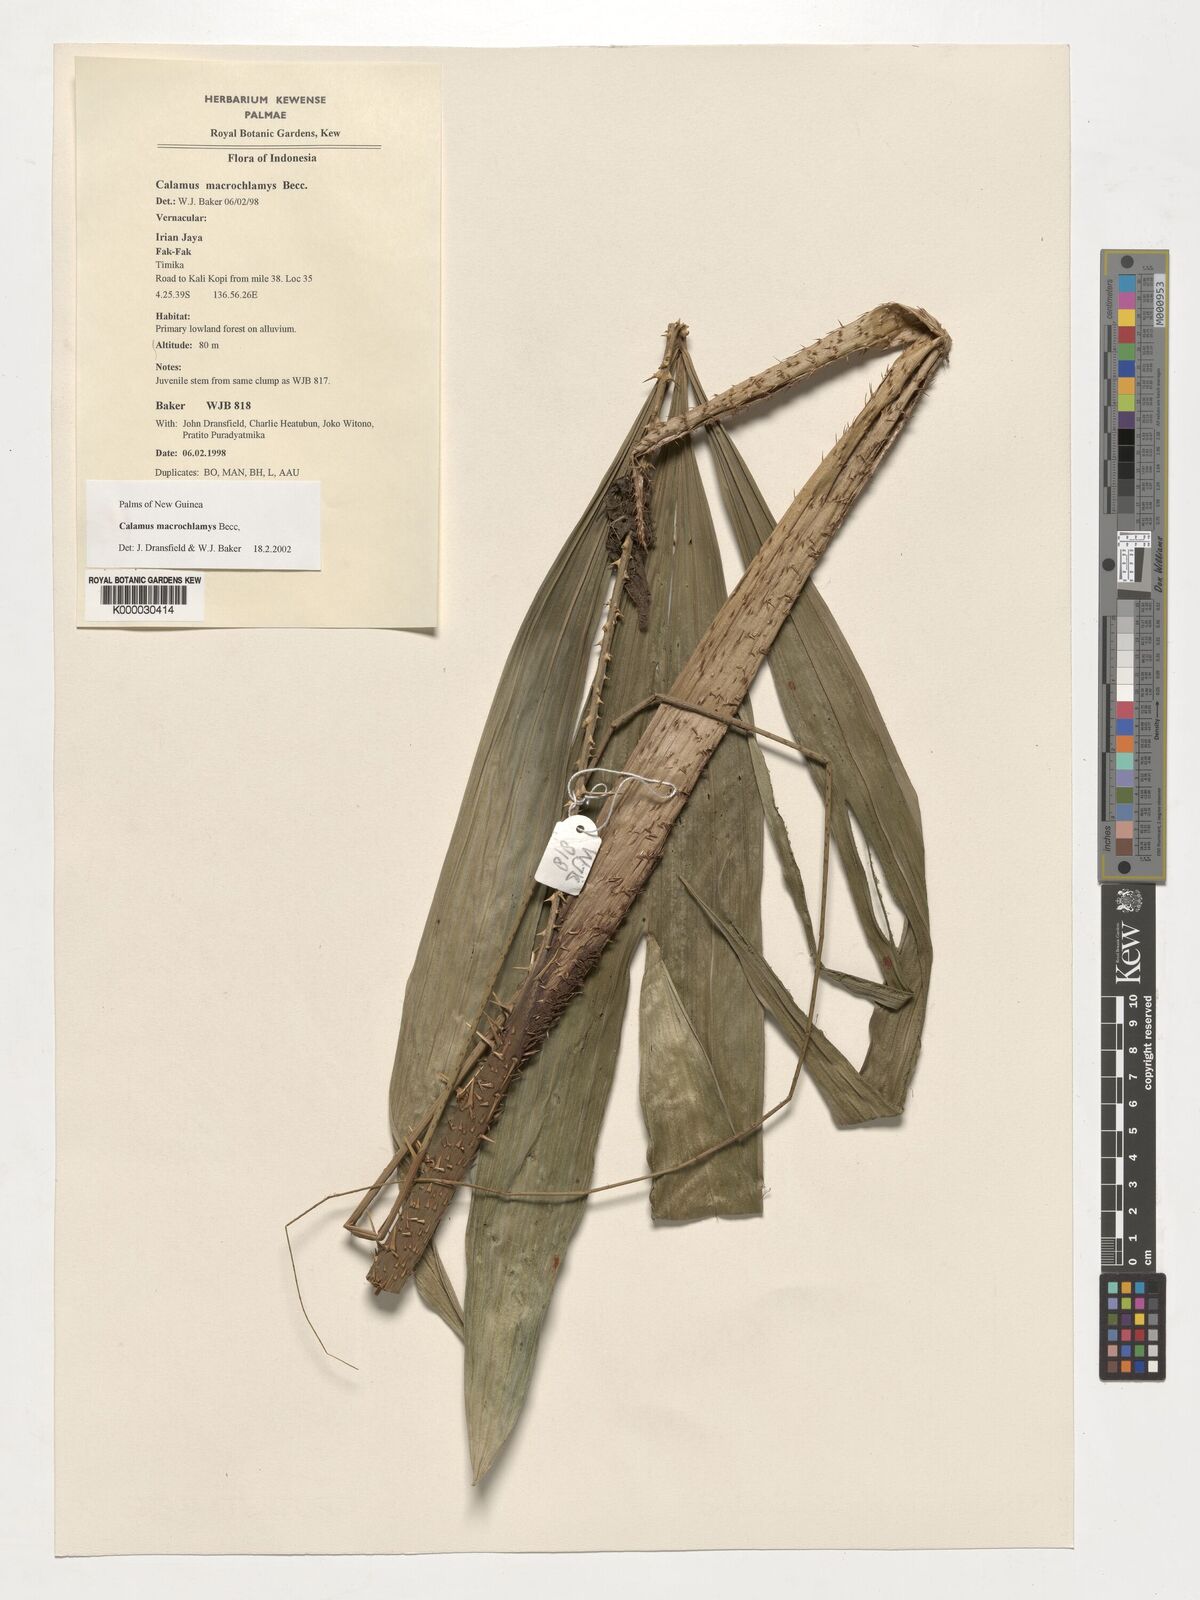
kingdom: Plantae
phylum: Tracheophyta
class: Liliopsida
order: Arecales
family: Arecaceae
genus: Calamus
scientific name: Calamus macrochlamys
